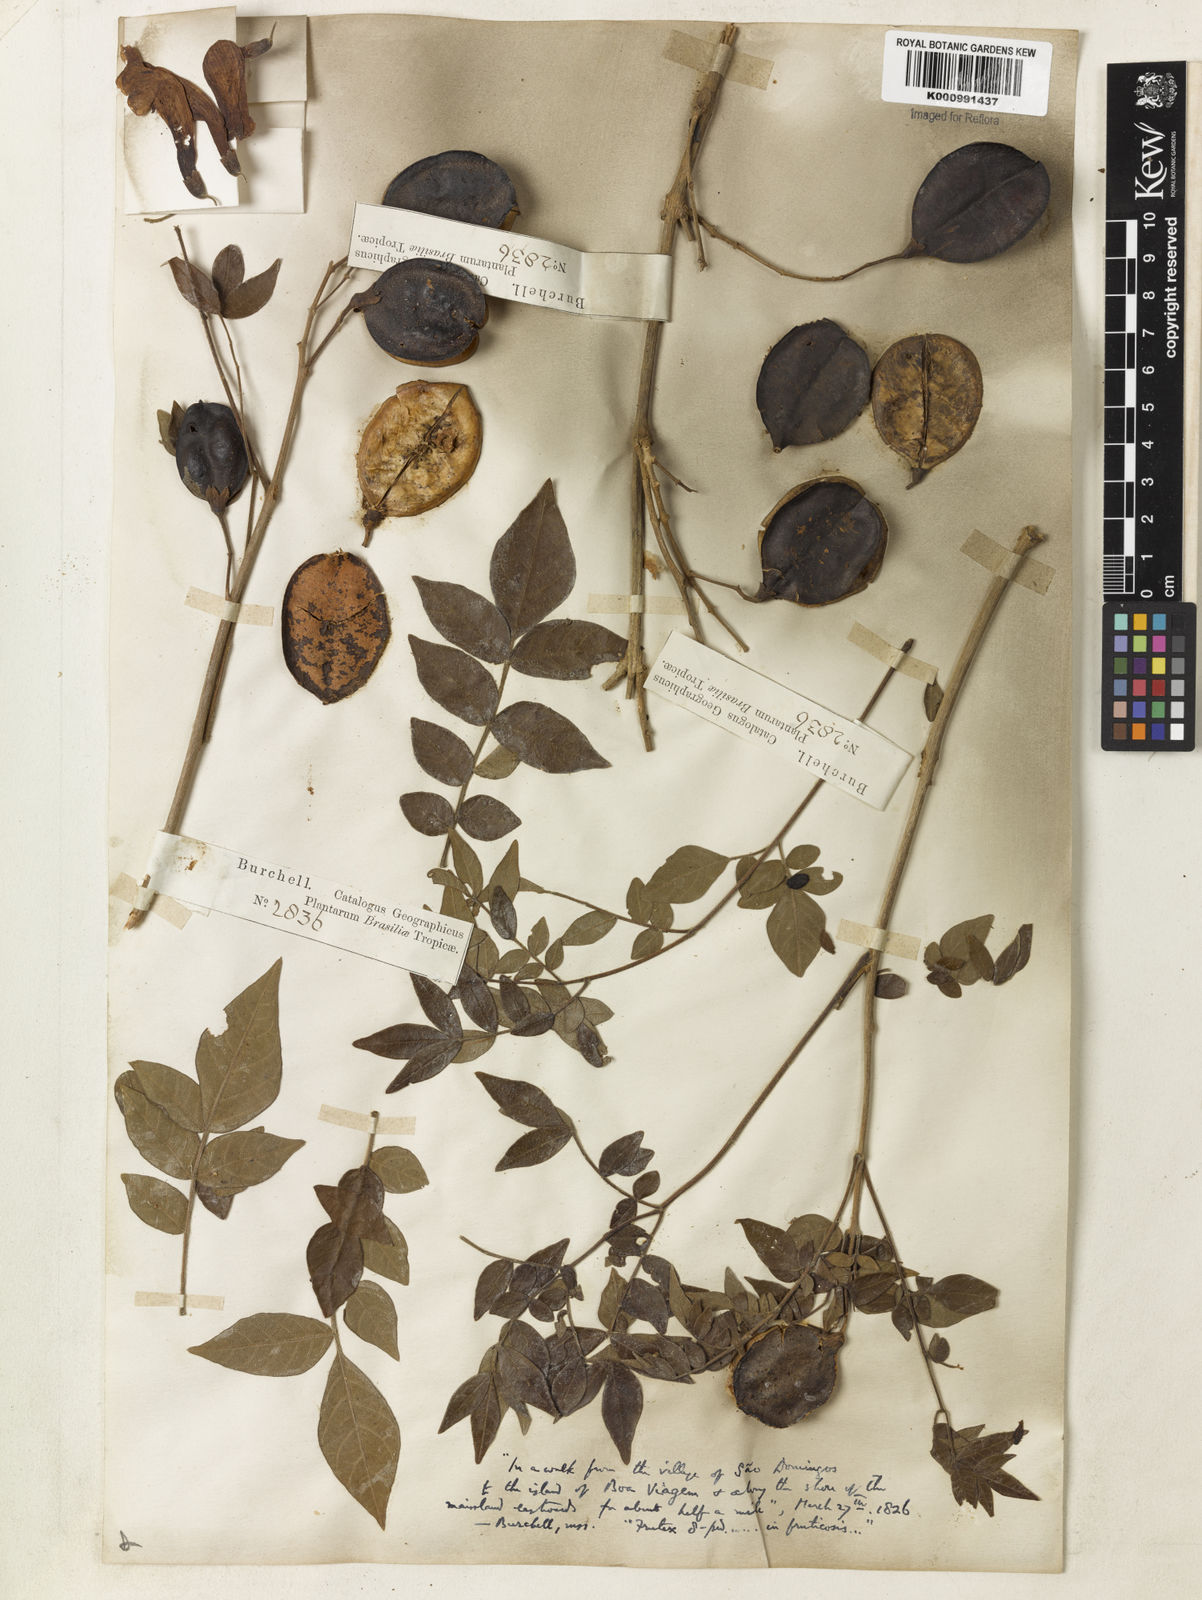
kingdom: Plantae
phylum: Tracheophyta
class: Magnoliopsida
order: Lamiales
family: Bignoniaceae
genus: Jacaranda
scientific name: Jacaranda jasminoides
